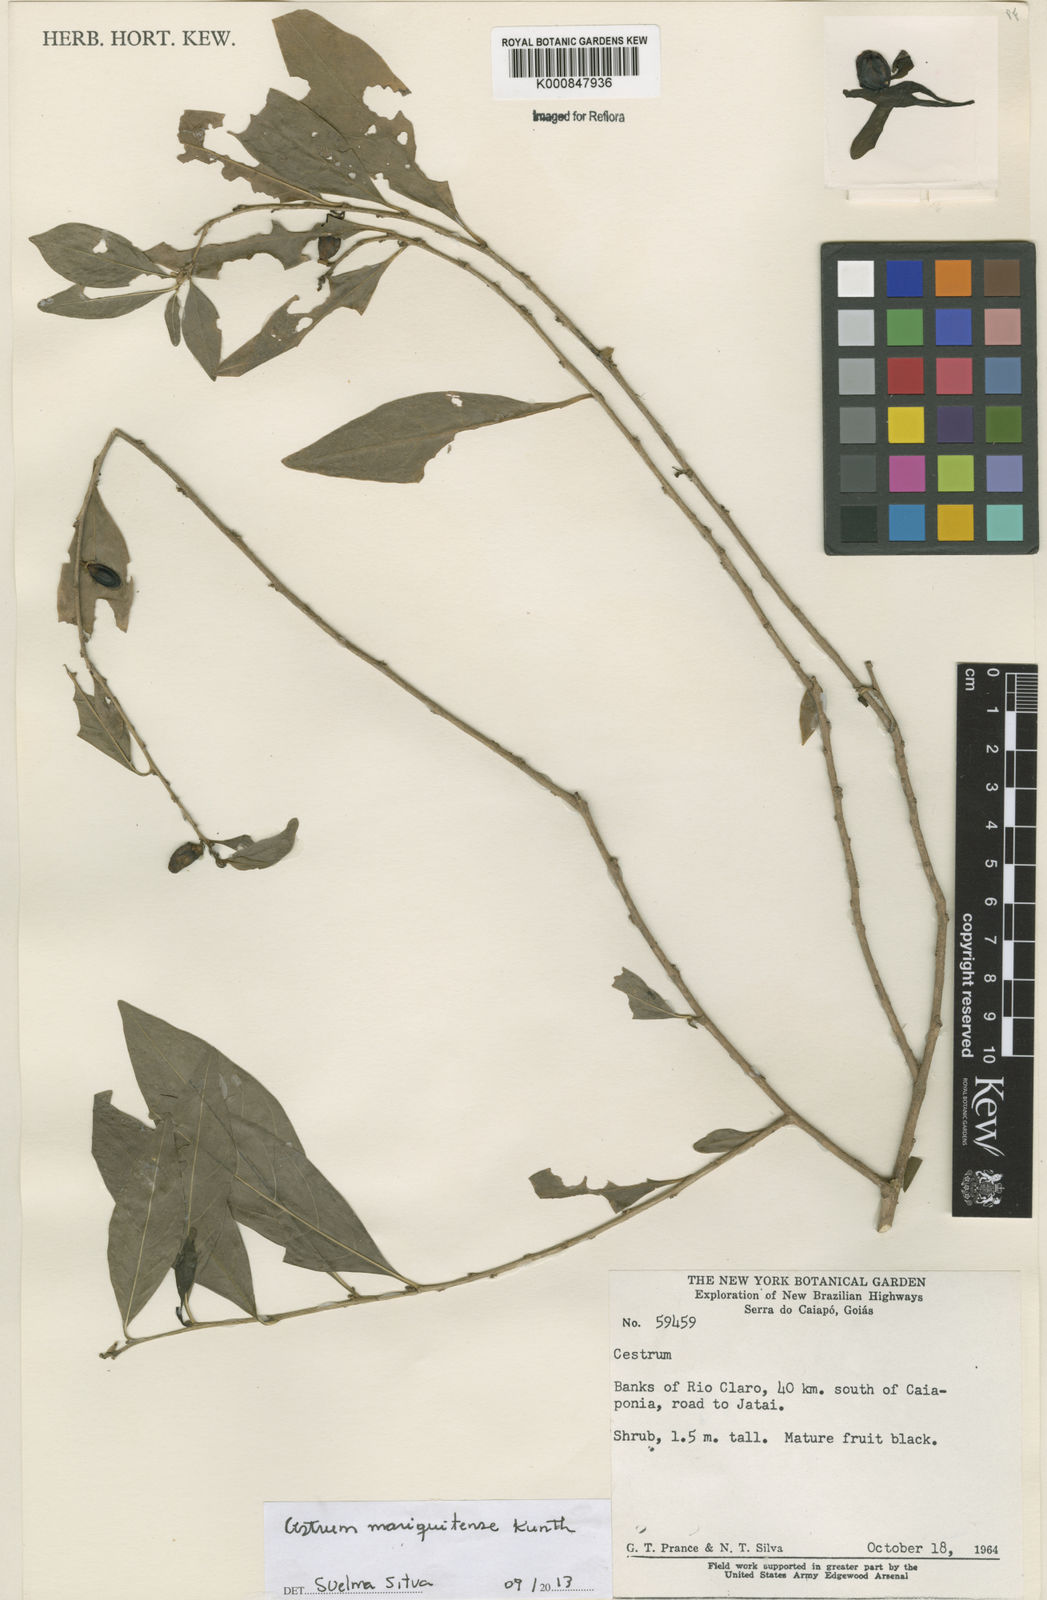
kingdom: Plantae
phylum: Tracheophyta
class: Magnoliopsida
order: Solanales
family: Solanaceae
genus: Cestrum
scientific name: Cestrum mariquitense
